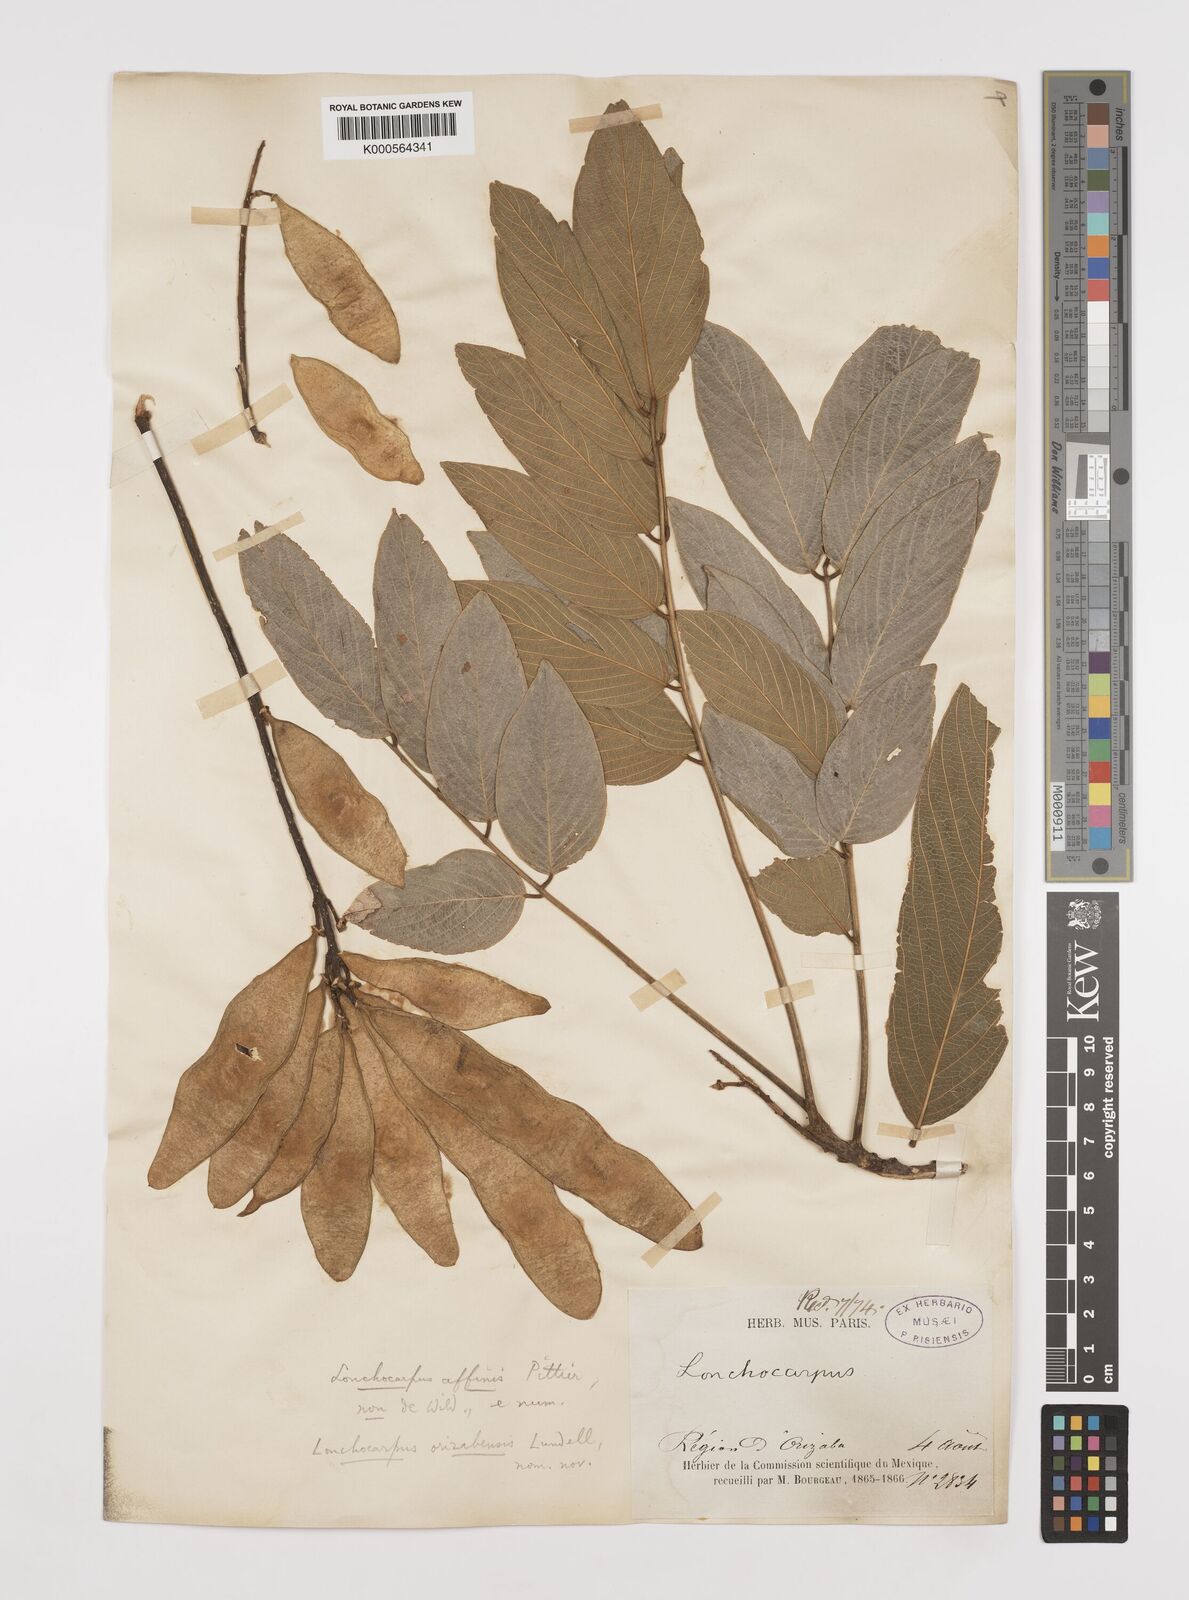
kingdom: Plantae
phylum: Tracheophyta
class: Magnoliopsida
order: Fabales
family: Fabaceae
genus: Lonchocarpus
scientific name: Lonchocarpus orizabensis
